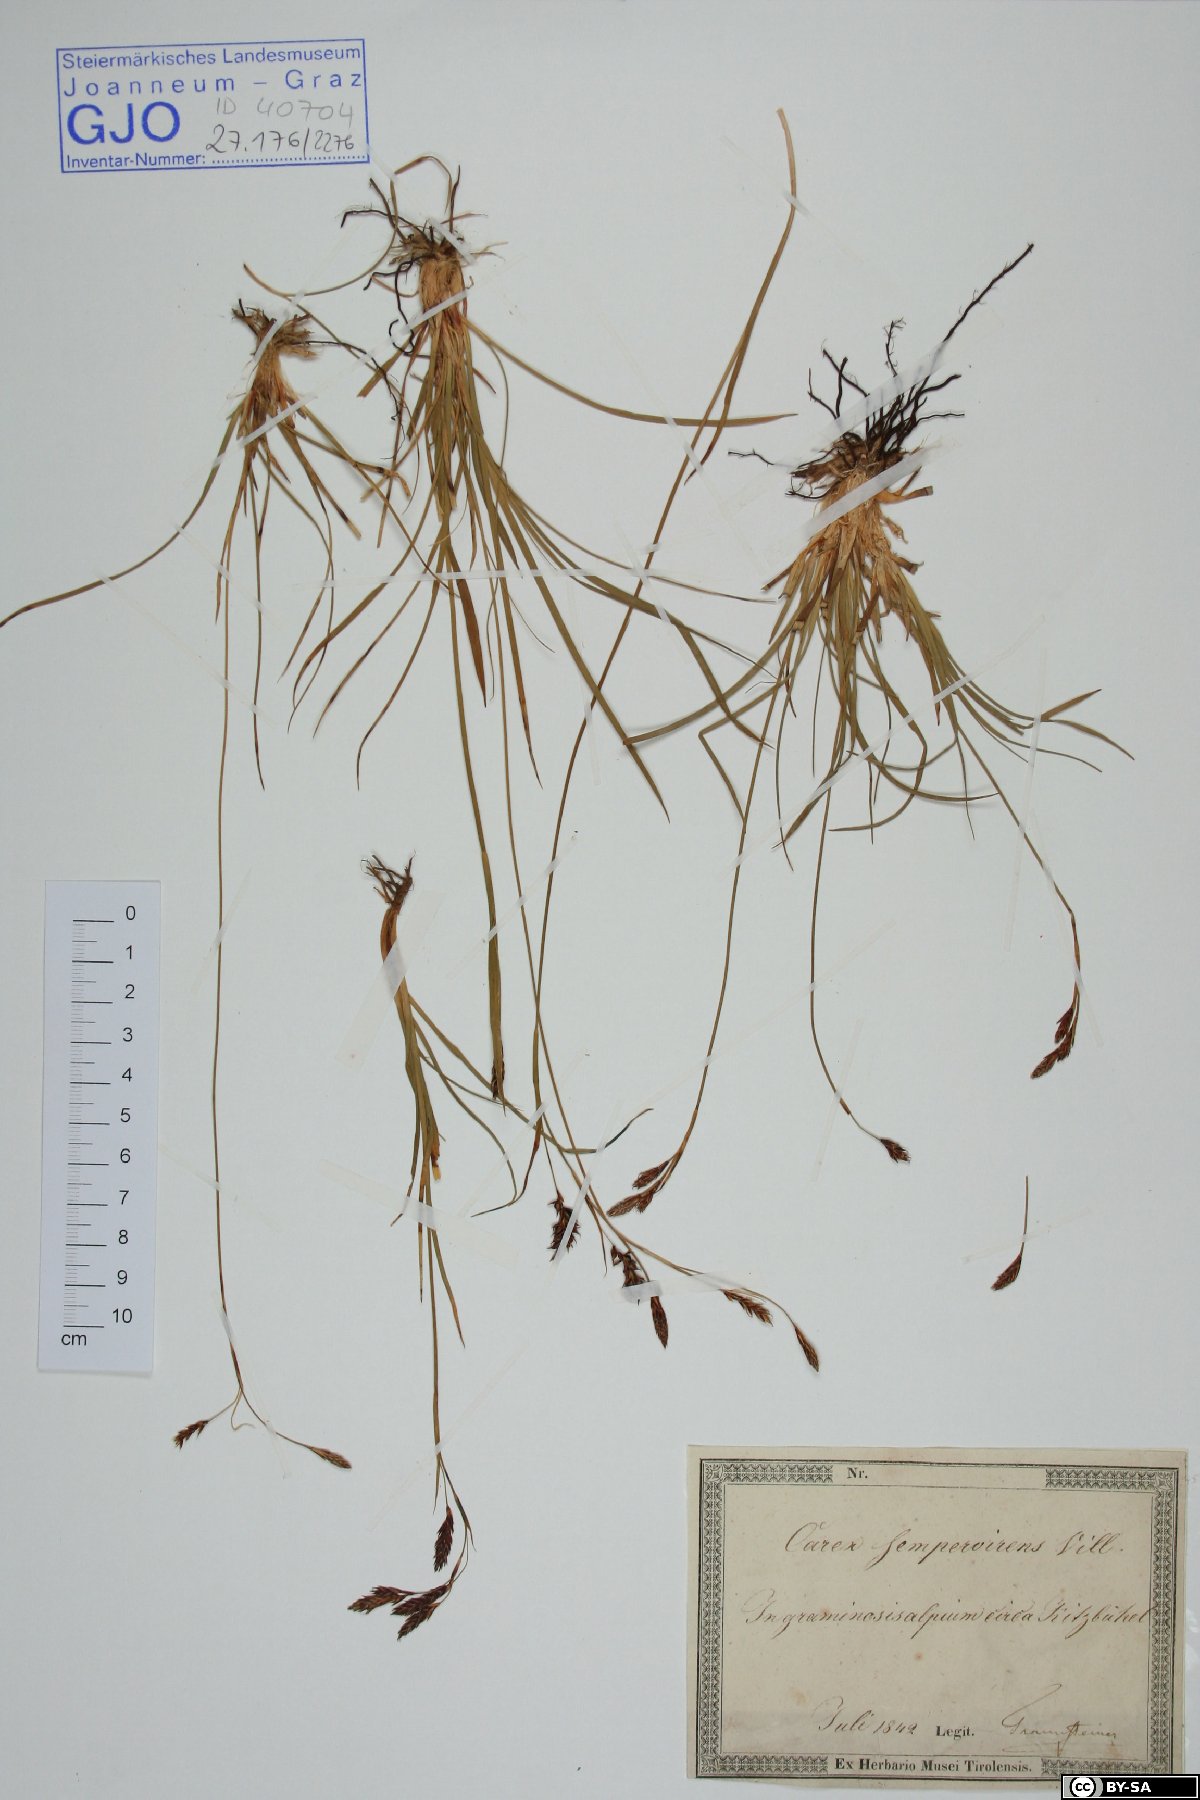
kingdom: Plantae
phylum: Tracheophyta
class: Liliopsida
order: Poales
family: Cyperaceae
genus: Carex
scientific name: Carex sempervirens
